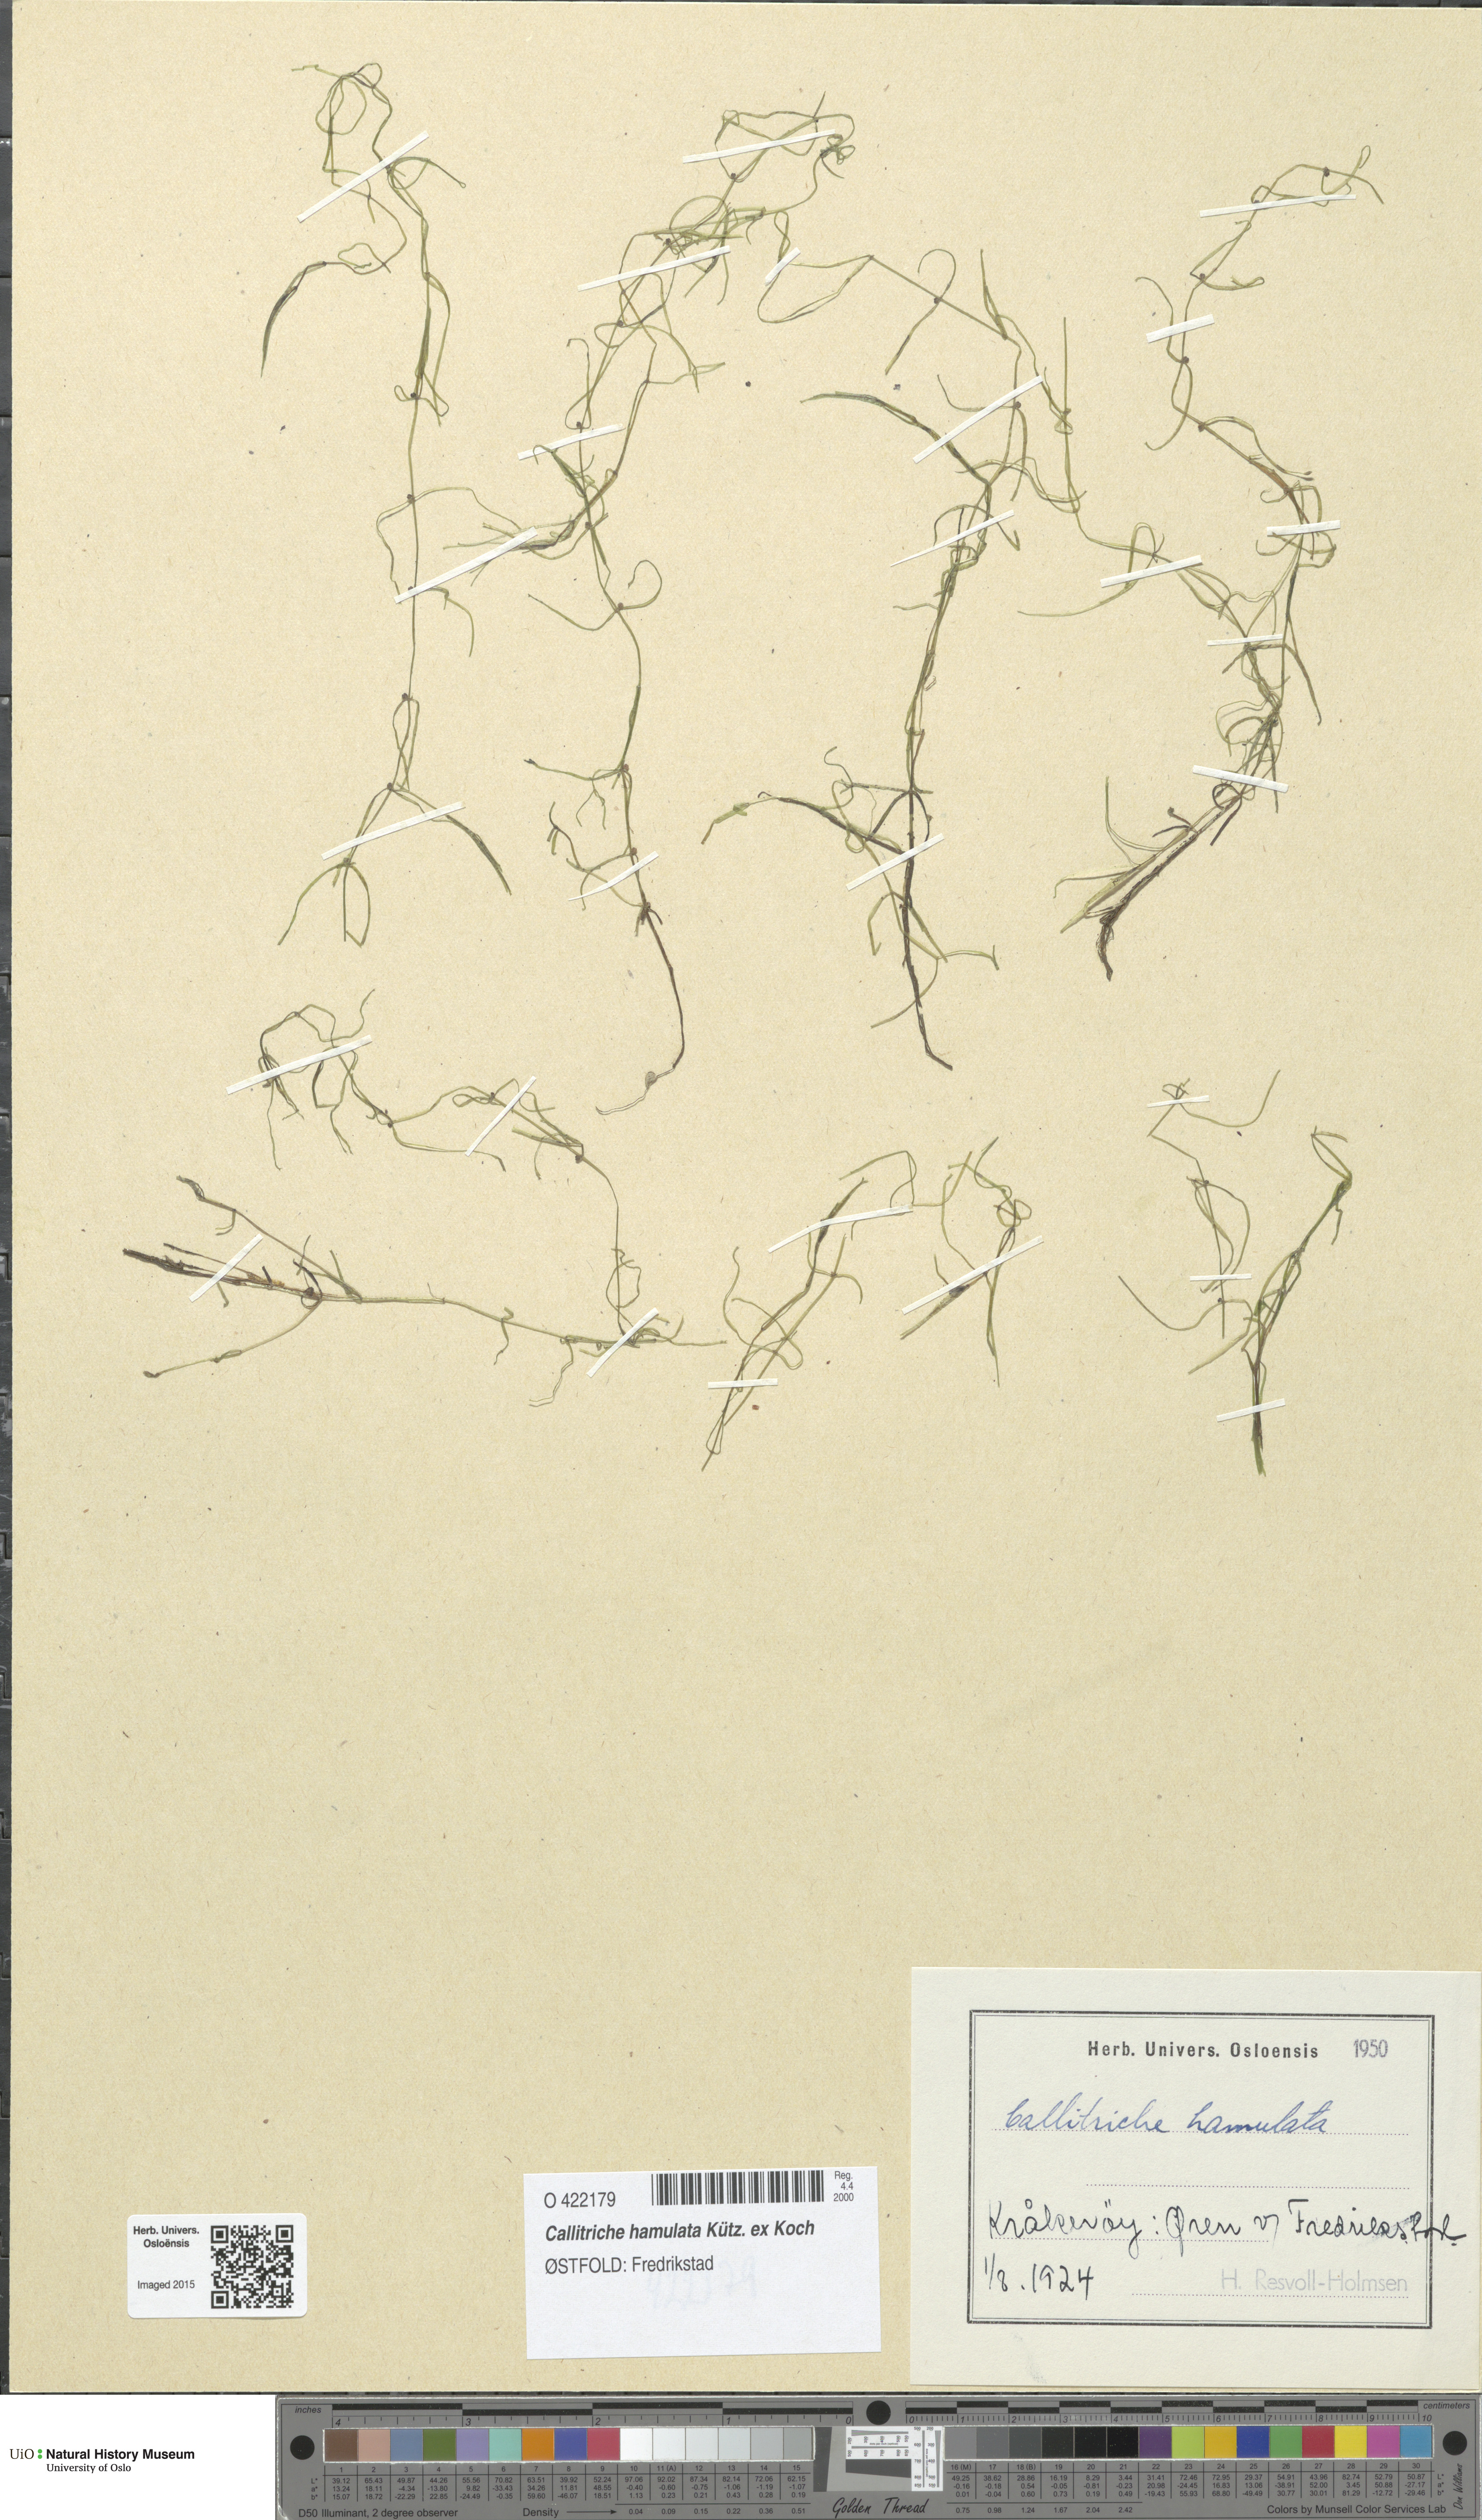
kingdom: Plantae
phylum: Tracheophyta
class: Magnoliopsida
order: Lamiales
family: Plantaginaceae
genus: Callitriche
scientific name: Callitriche hamulata
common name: Intermediate water-starwort
